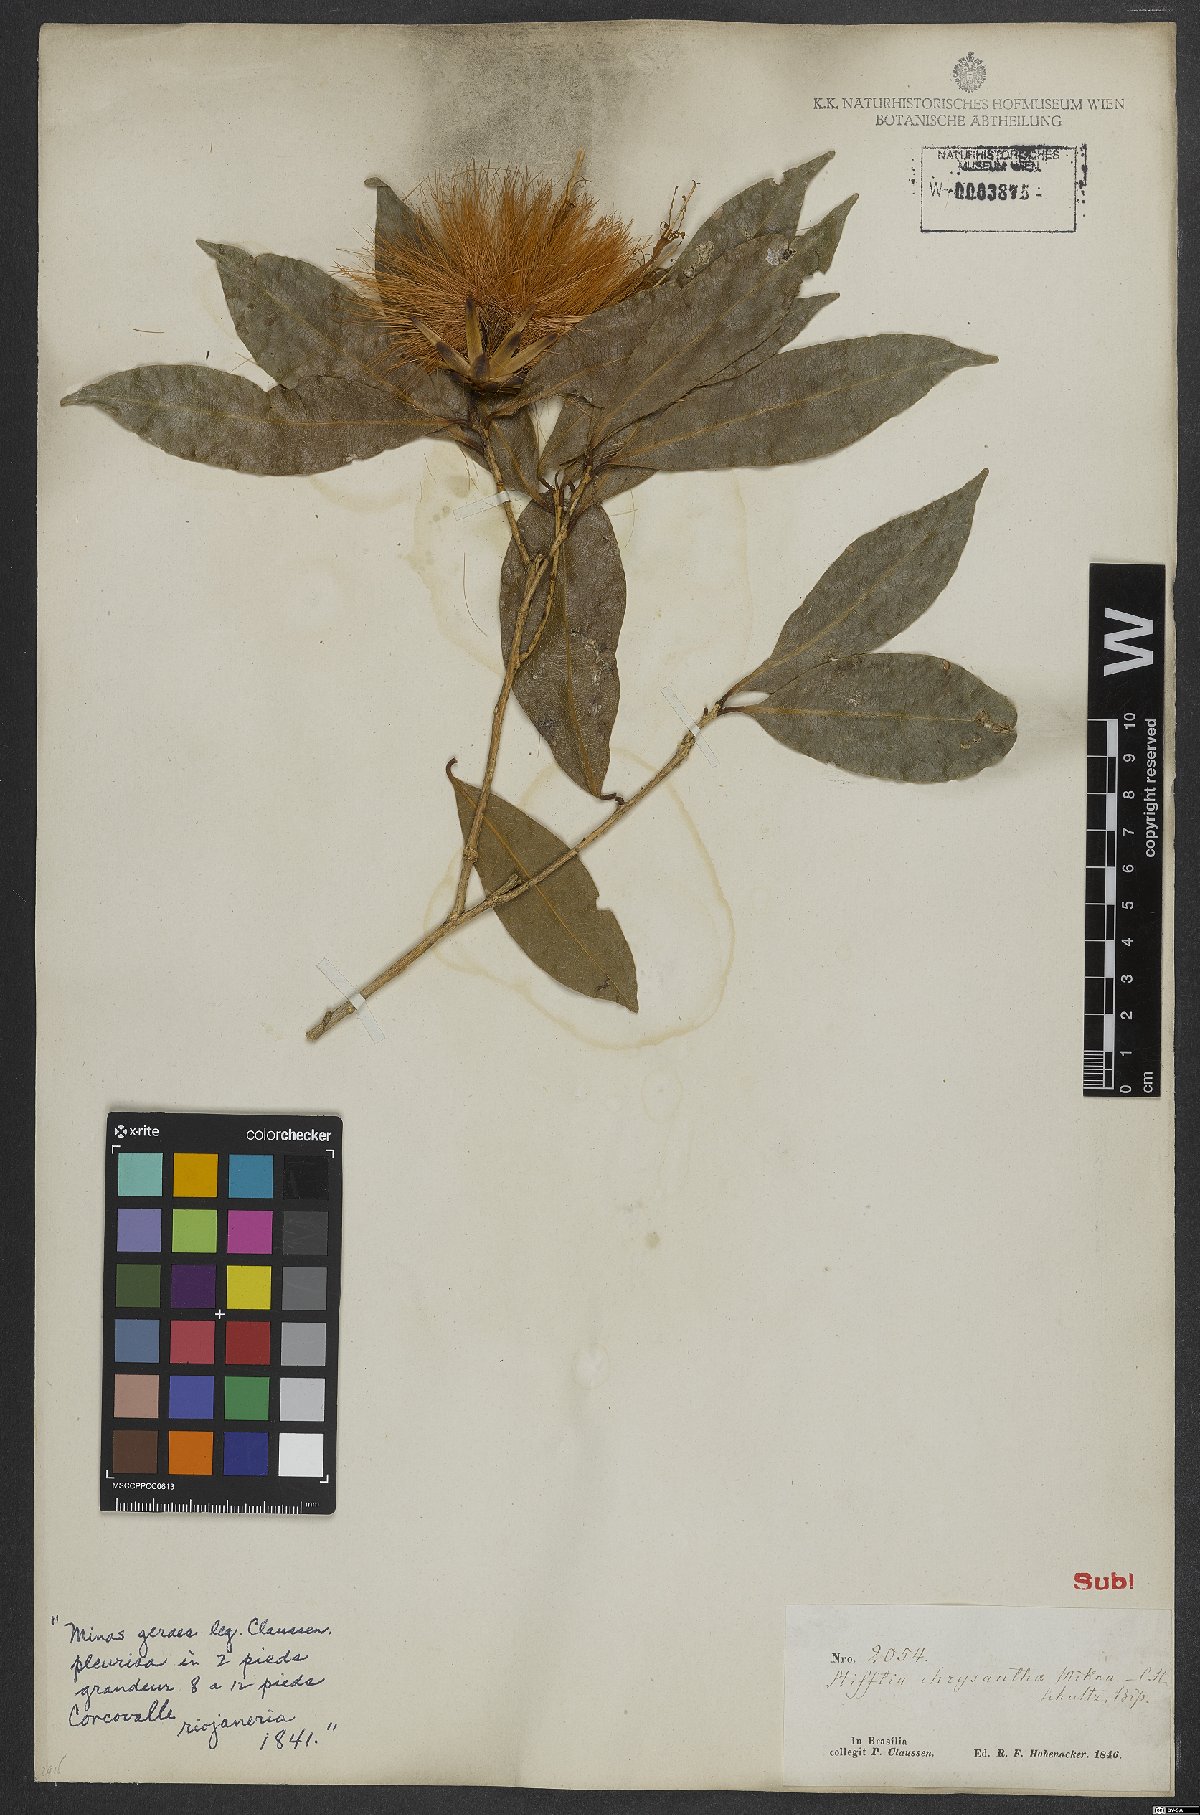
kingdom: Plantae
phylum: Tracheophyta
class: Magnoliopsida
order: Asterales
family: Asteraceae
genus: Stifftia
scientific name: Stifftia chrysantha
